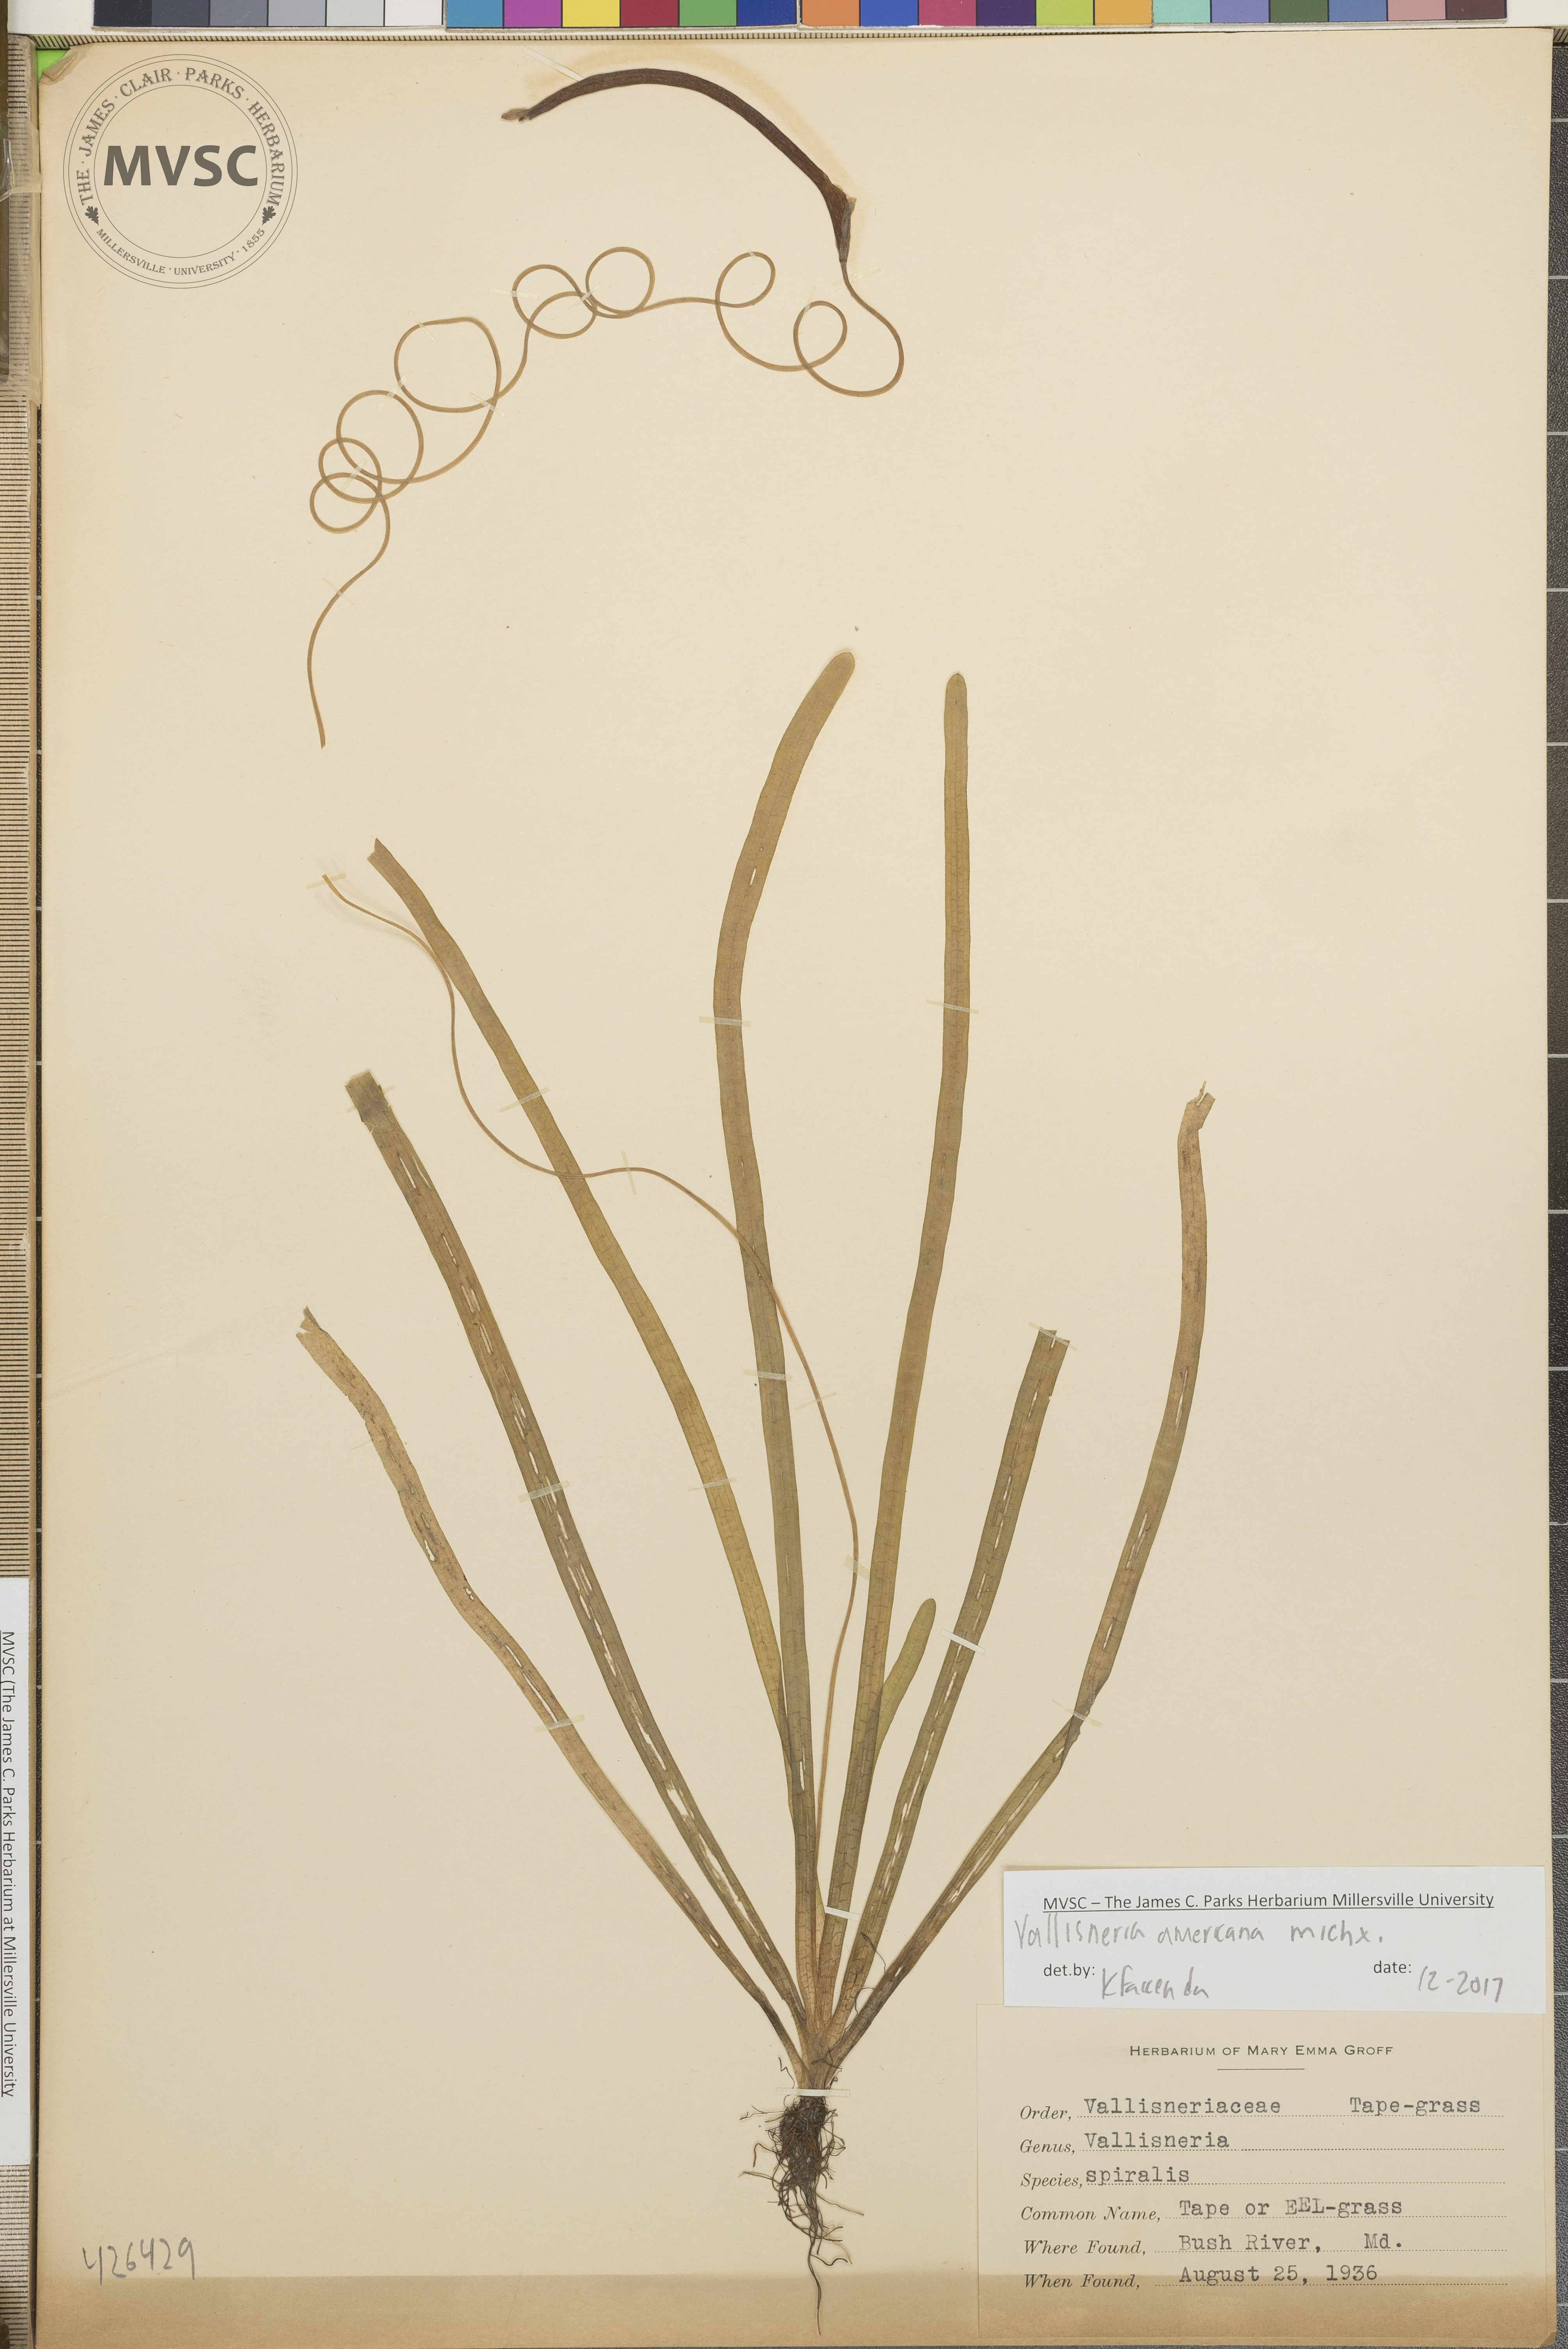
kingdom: Plantae
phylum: Tracheophyta
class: Liliopsida
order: Alismatales
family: Hydrocharitaceae
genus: Vallisneria
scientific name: Vallisneria americana
